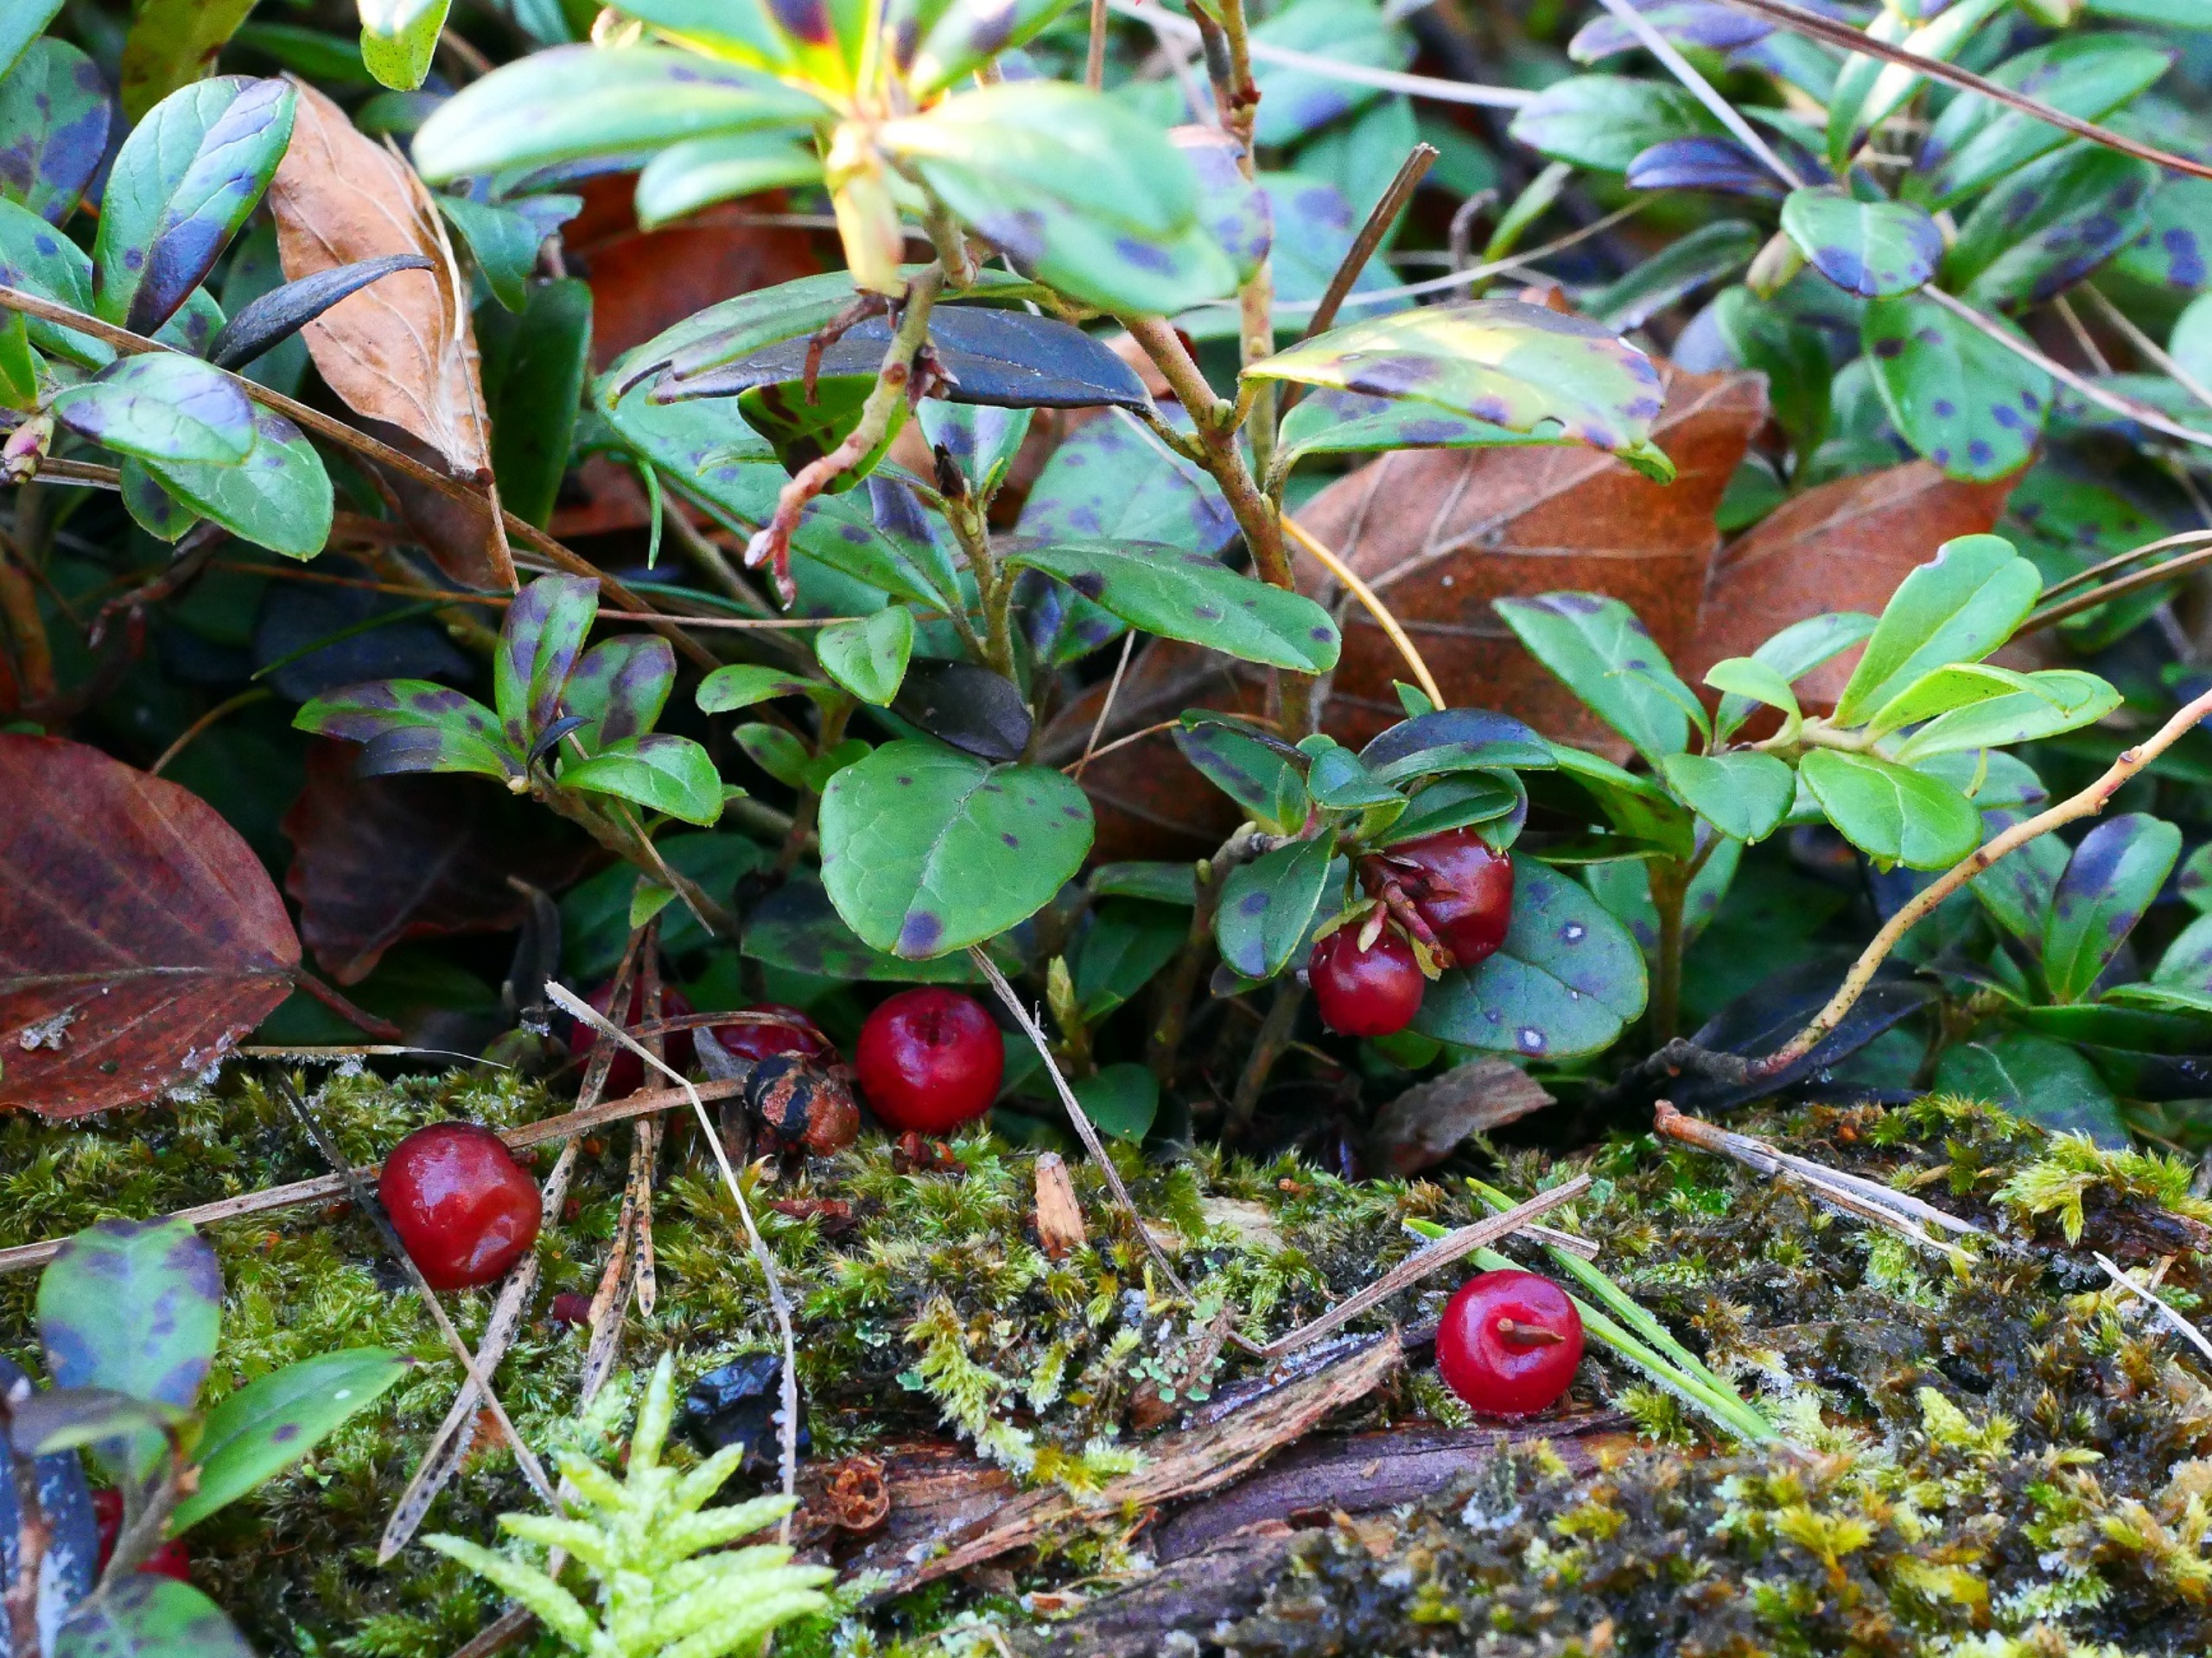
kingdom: Plantae
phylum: Tracheophyta
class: Magnoliopsida
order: Ericales
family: Ericaceae
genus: Vaccinium
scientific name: Vaccinium vitis-idaea
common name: Tyttebær
